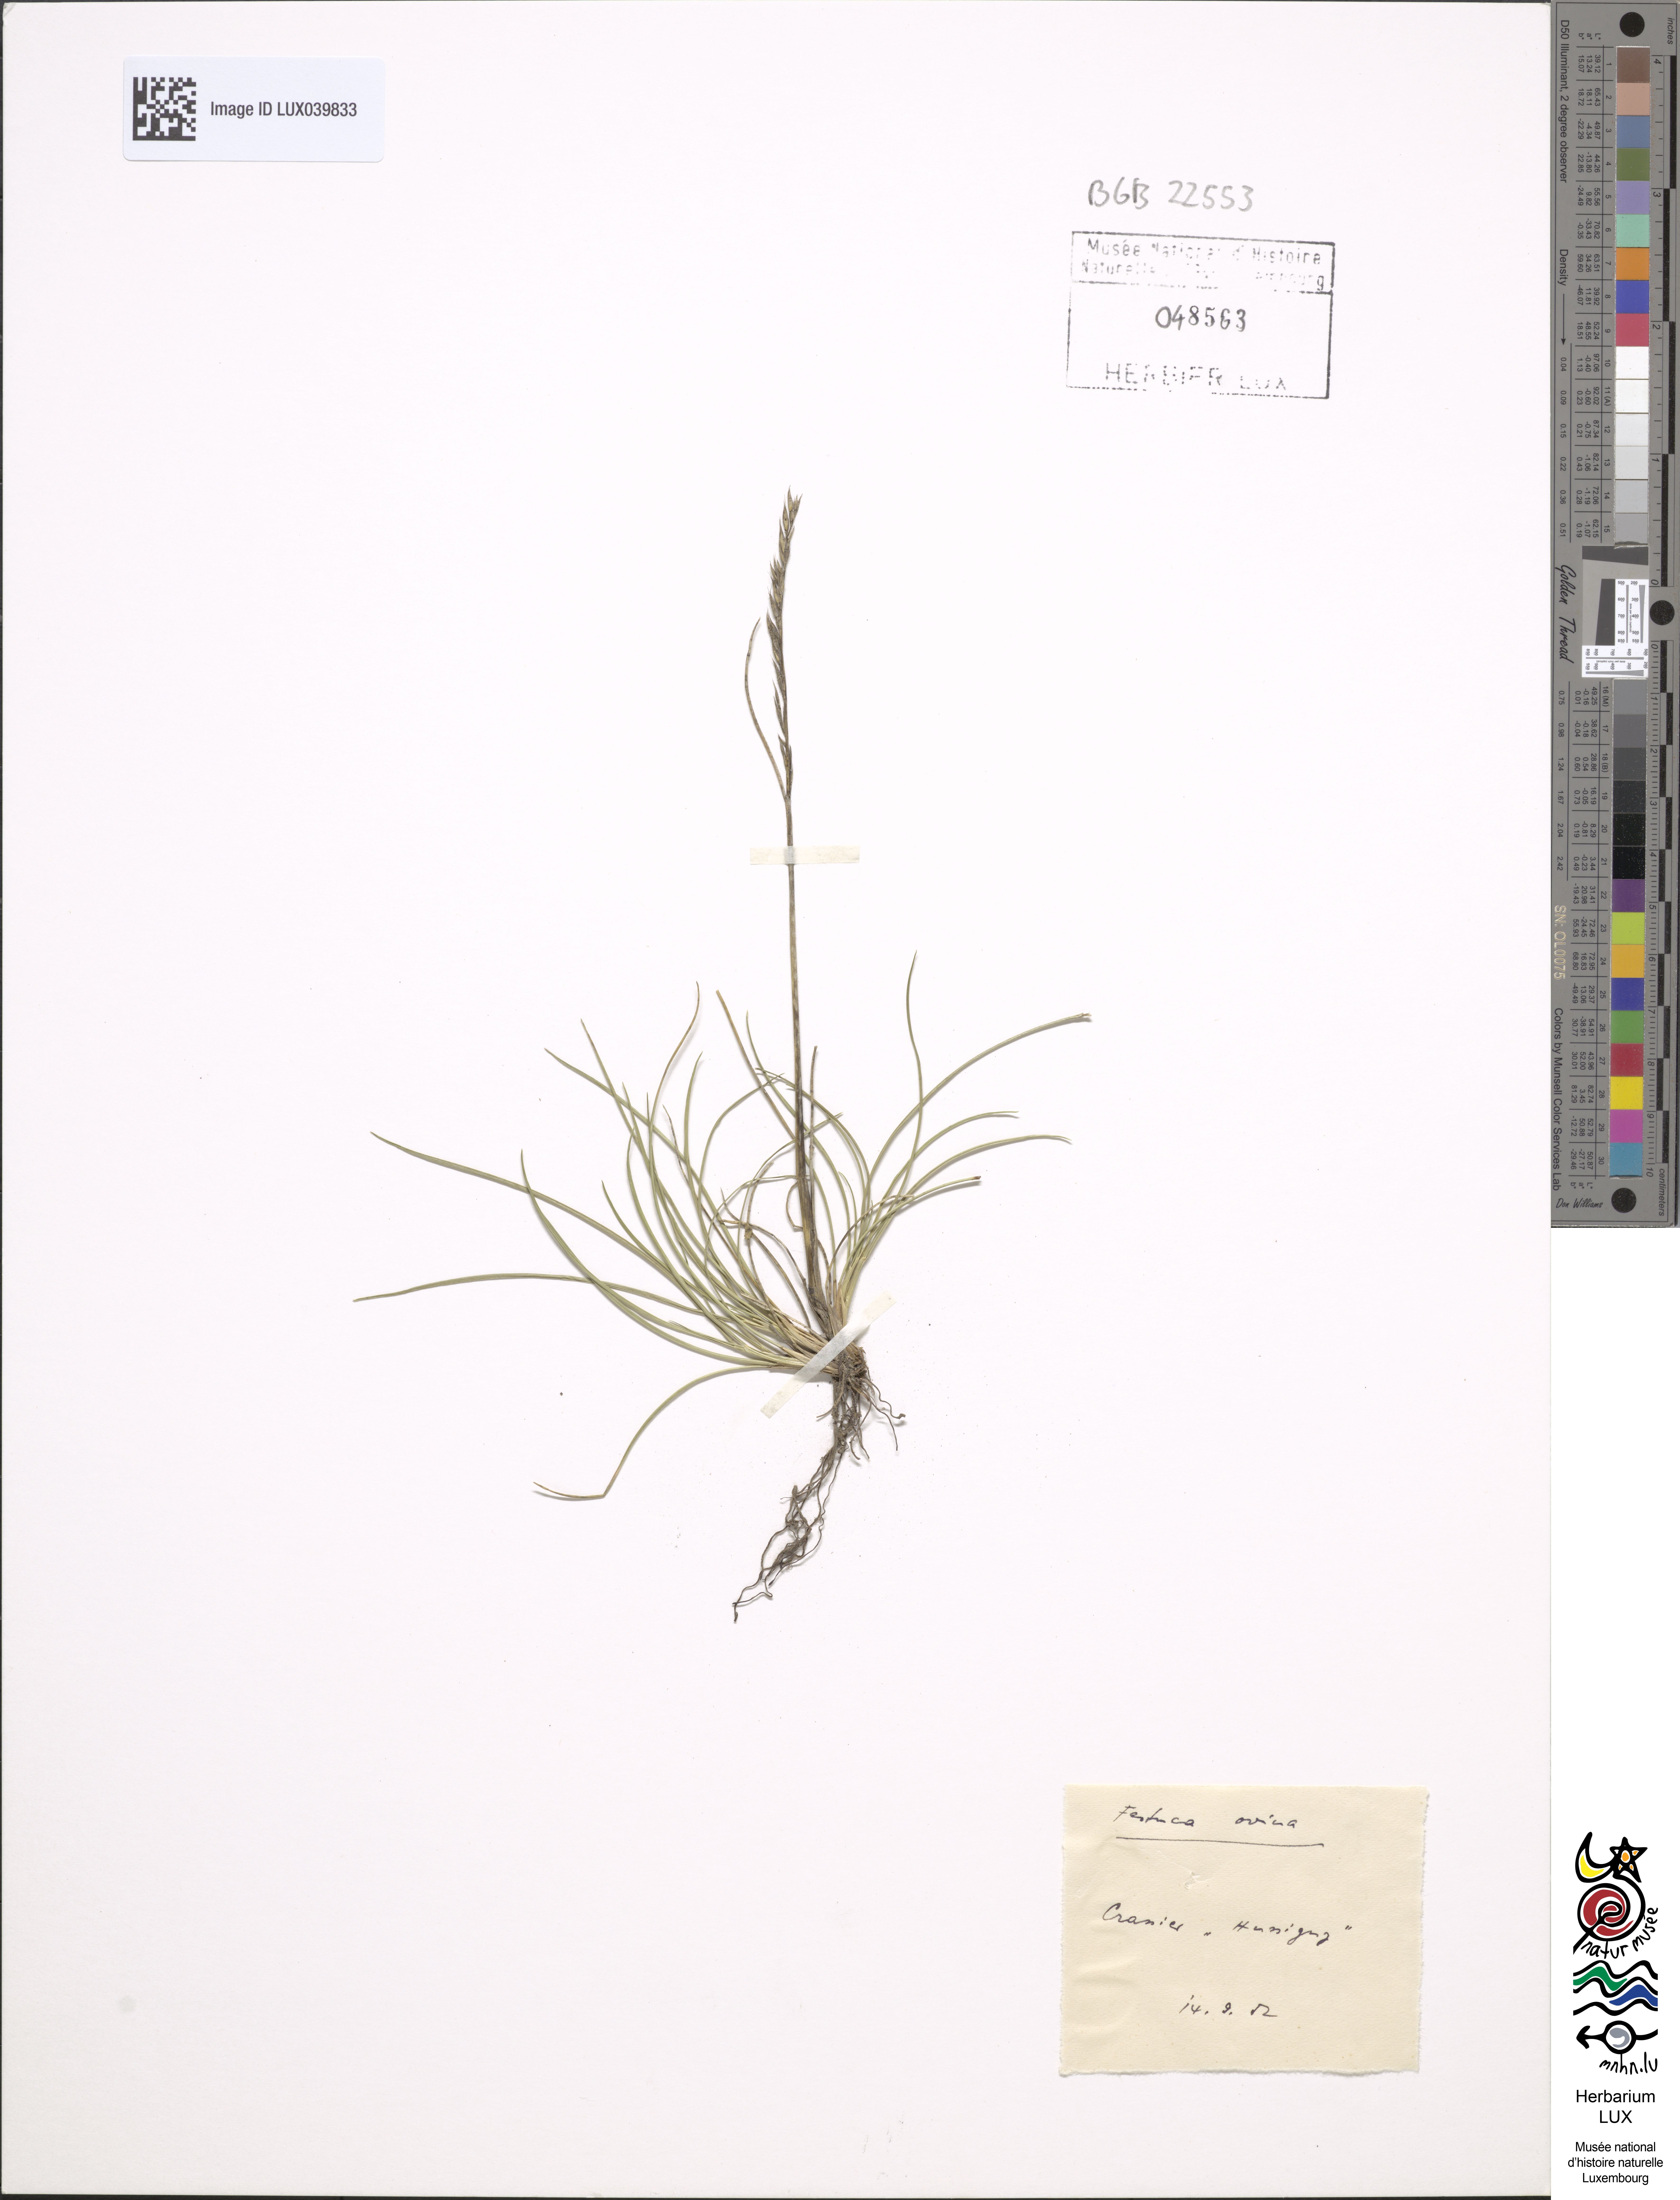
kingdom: Plantae
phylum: Tracheophyta
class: Liliopsida
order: Poales
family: Poaceae
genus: Festuca
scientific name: Festuca ovina
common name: Sheep fescue
